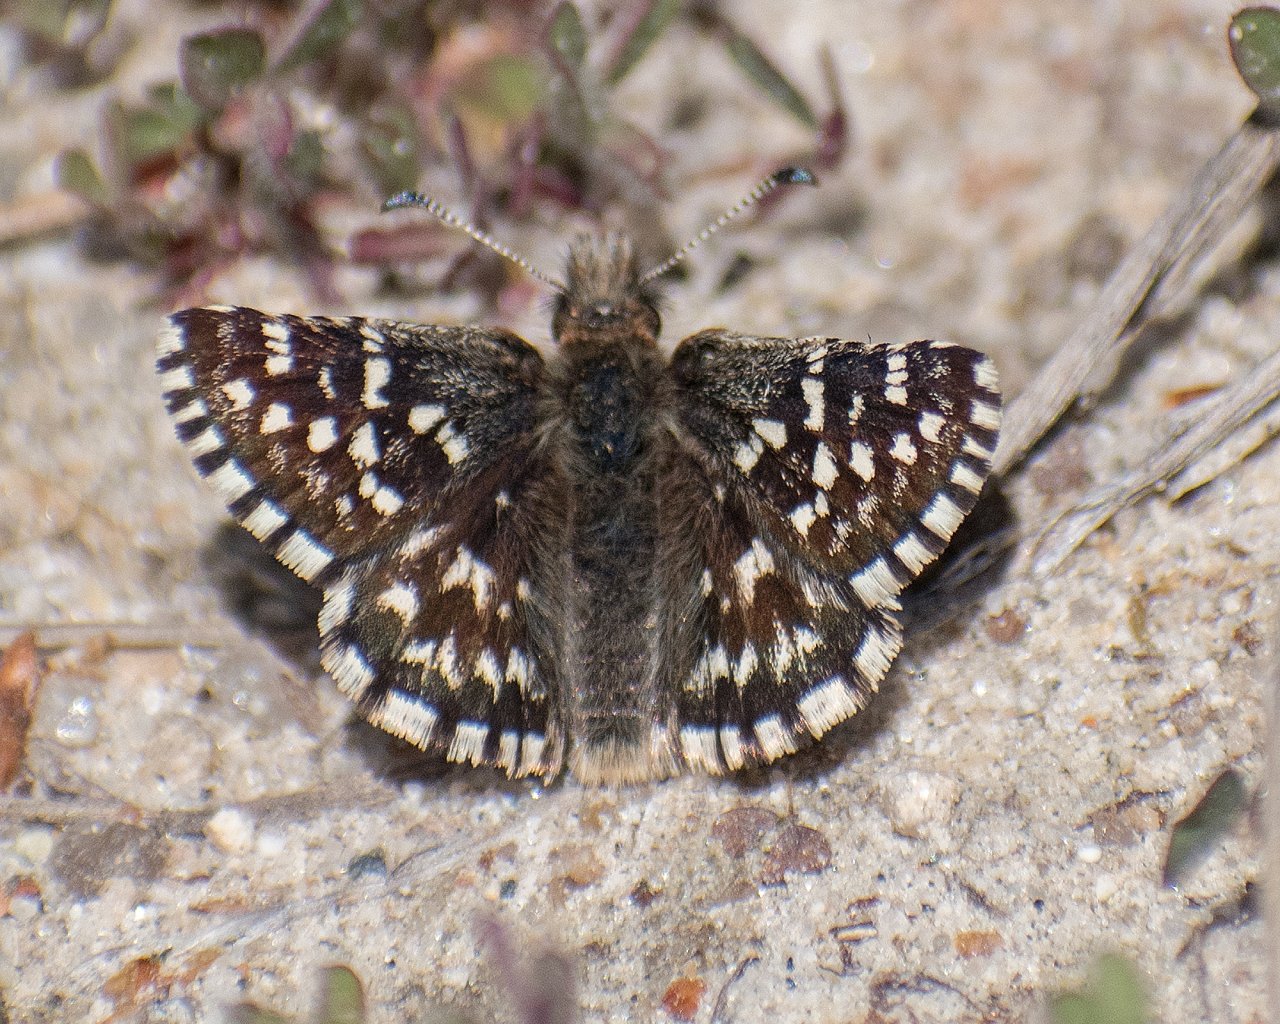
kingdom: Animalia
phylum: Arthropoda
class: Insecta
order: Lepidoptera
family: Hesperiidae
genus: Pyrgus
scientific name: Pyrgus ruralis
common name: Two-banded Checkered-Skipper
